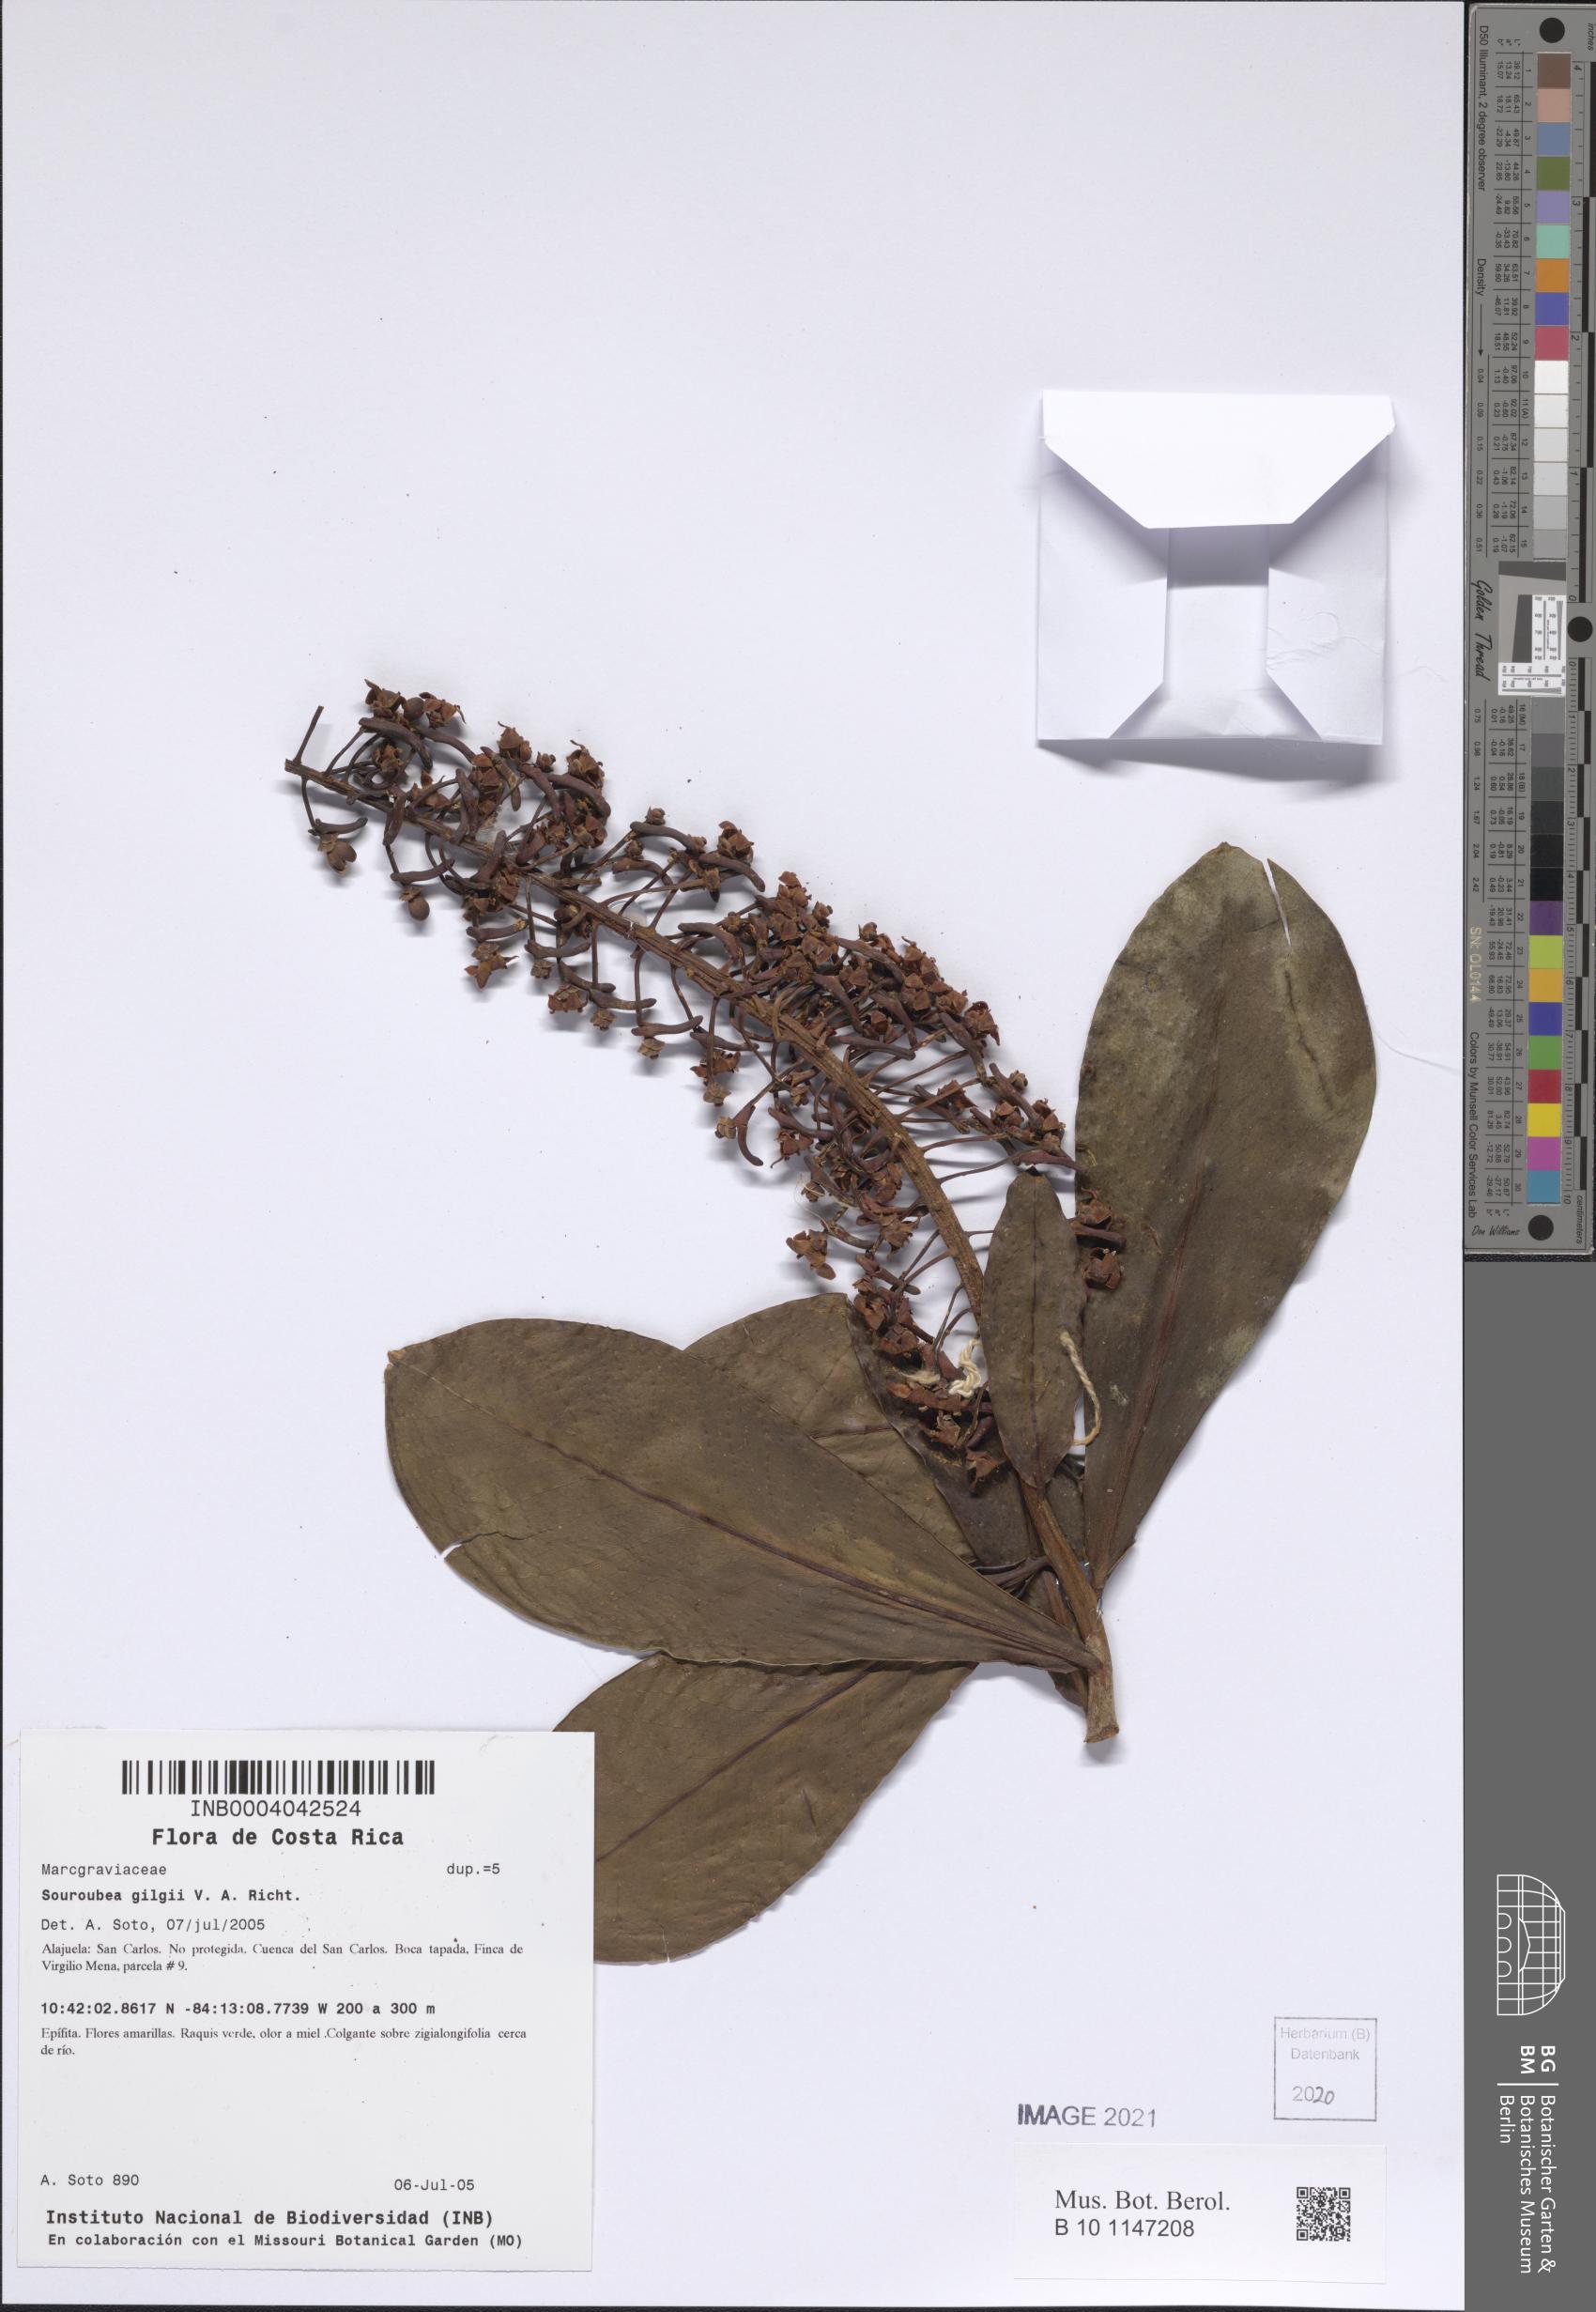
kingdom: Plantae
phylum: Tracheophyta
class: Magnoliopsida
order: Ericales
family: Marcgraviaceae
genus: Souroubea
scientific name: Souroubea gilgii
